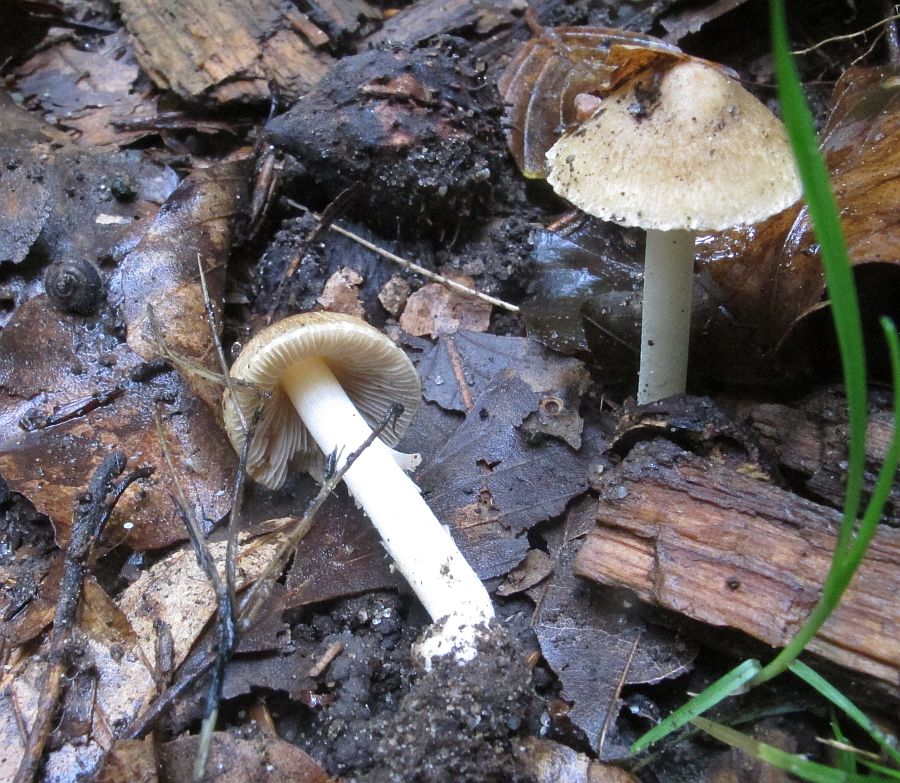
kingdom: Fungi
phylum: Basidiomycota
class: Agaricomycetes
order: Agaricales
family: Inocybaceae
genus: Inocybe
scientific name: Inocybe
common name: trævlhat
